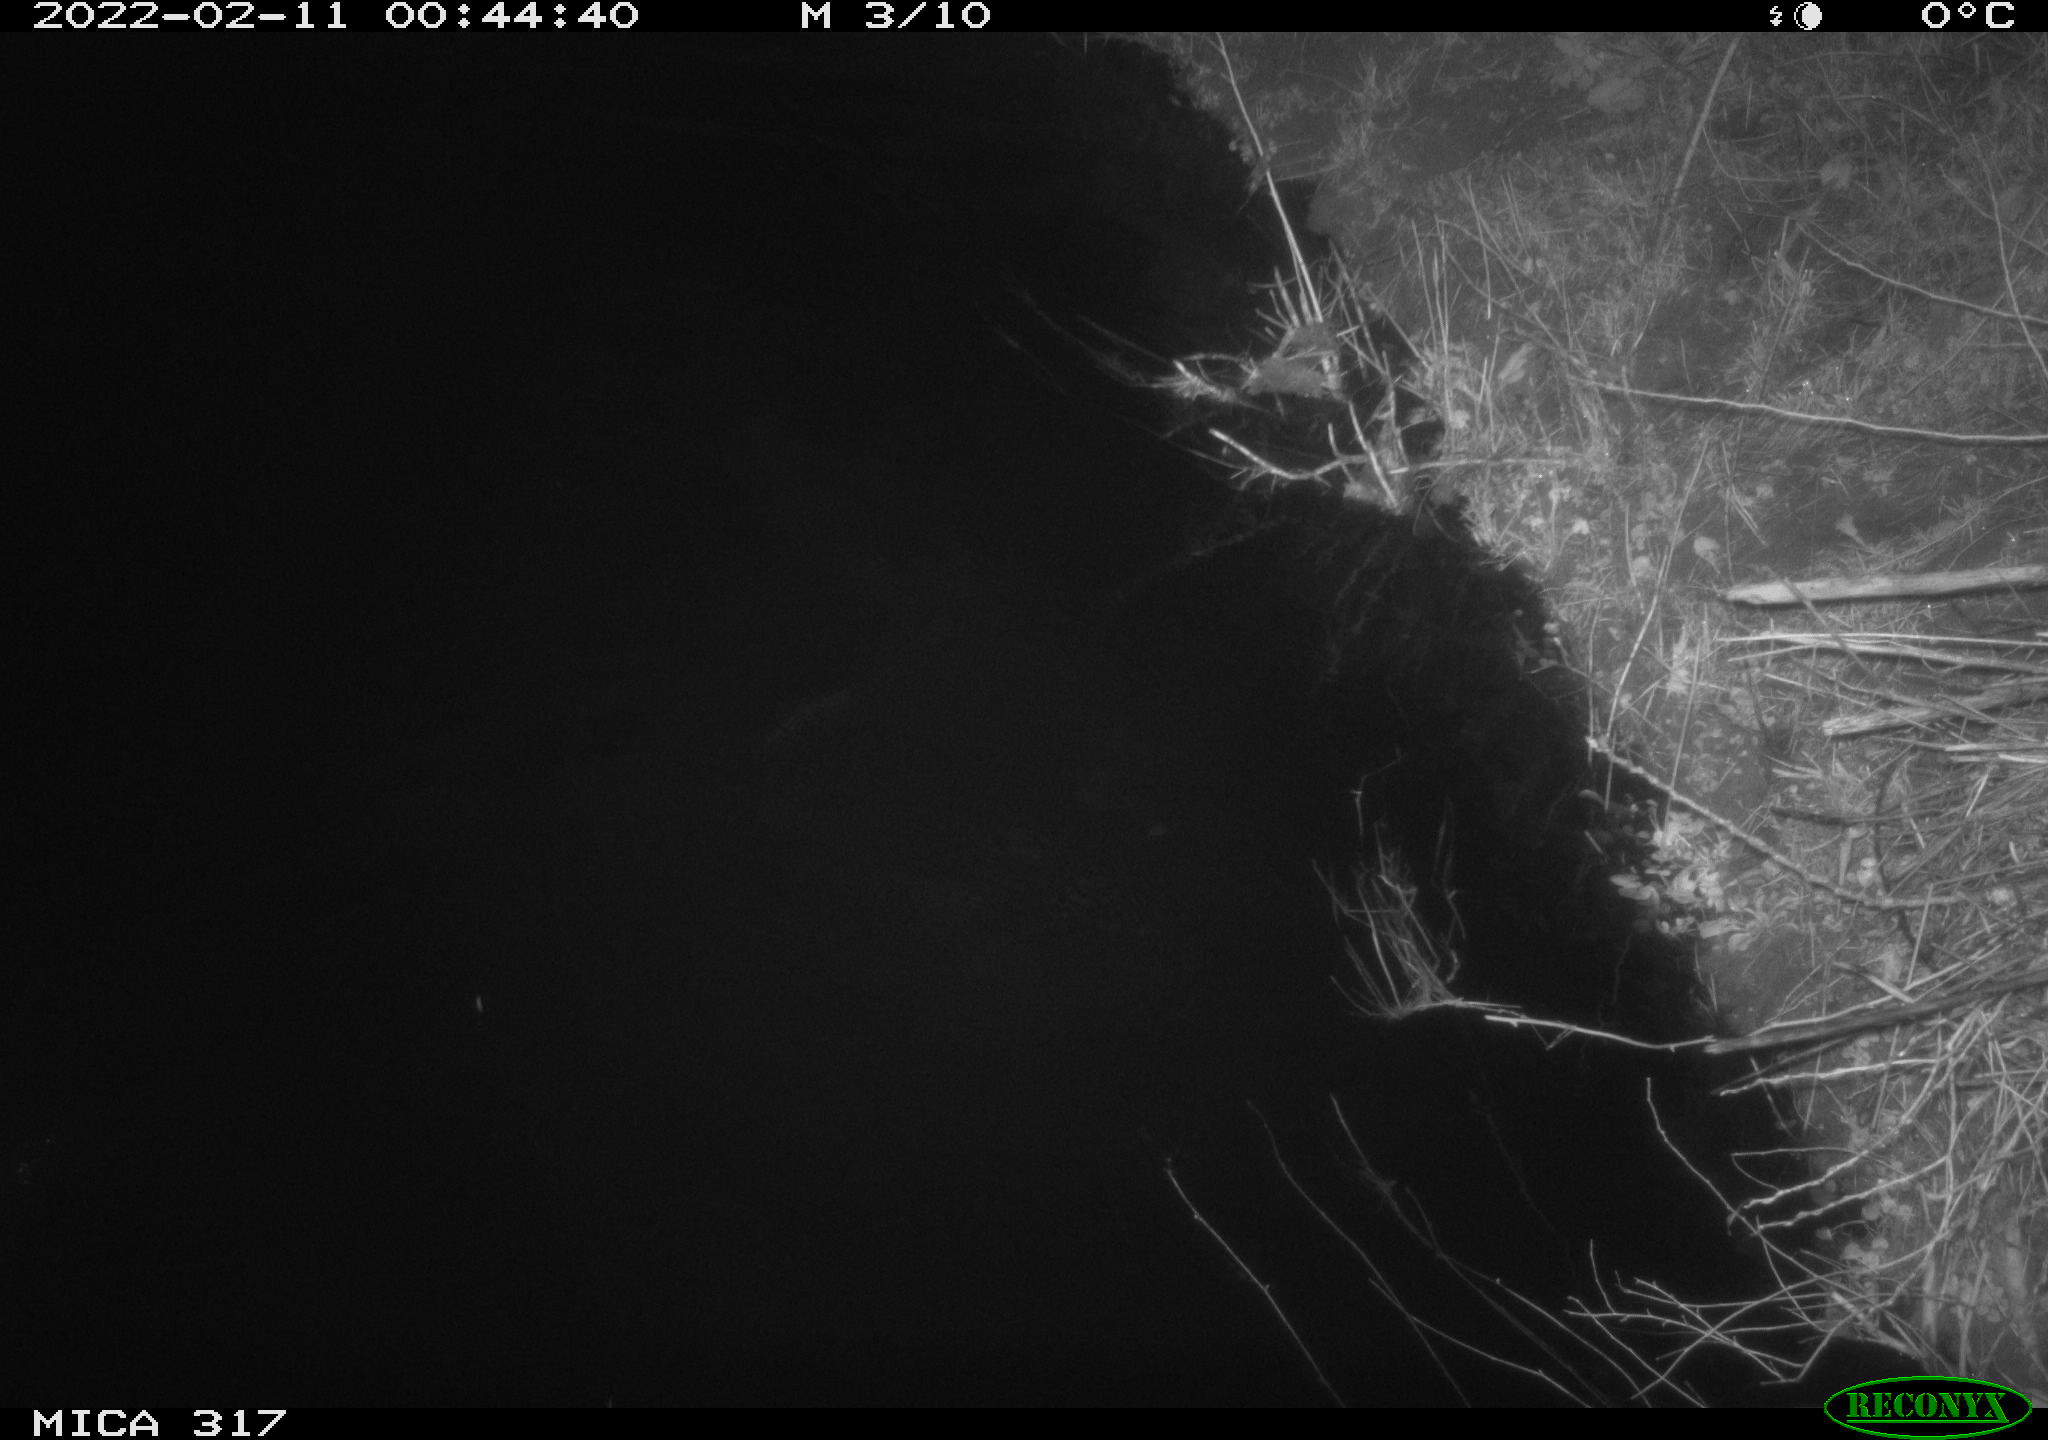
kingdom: Animalia
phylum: Chordata
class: Aves
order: Anseriformes
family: Anatidae
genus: Anas
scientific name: Anas platyrhynchos
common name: Mallard
